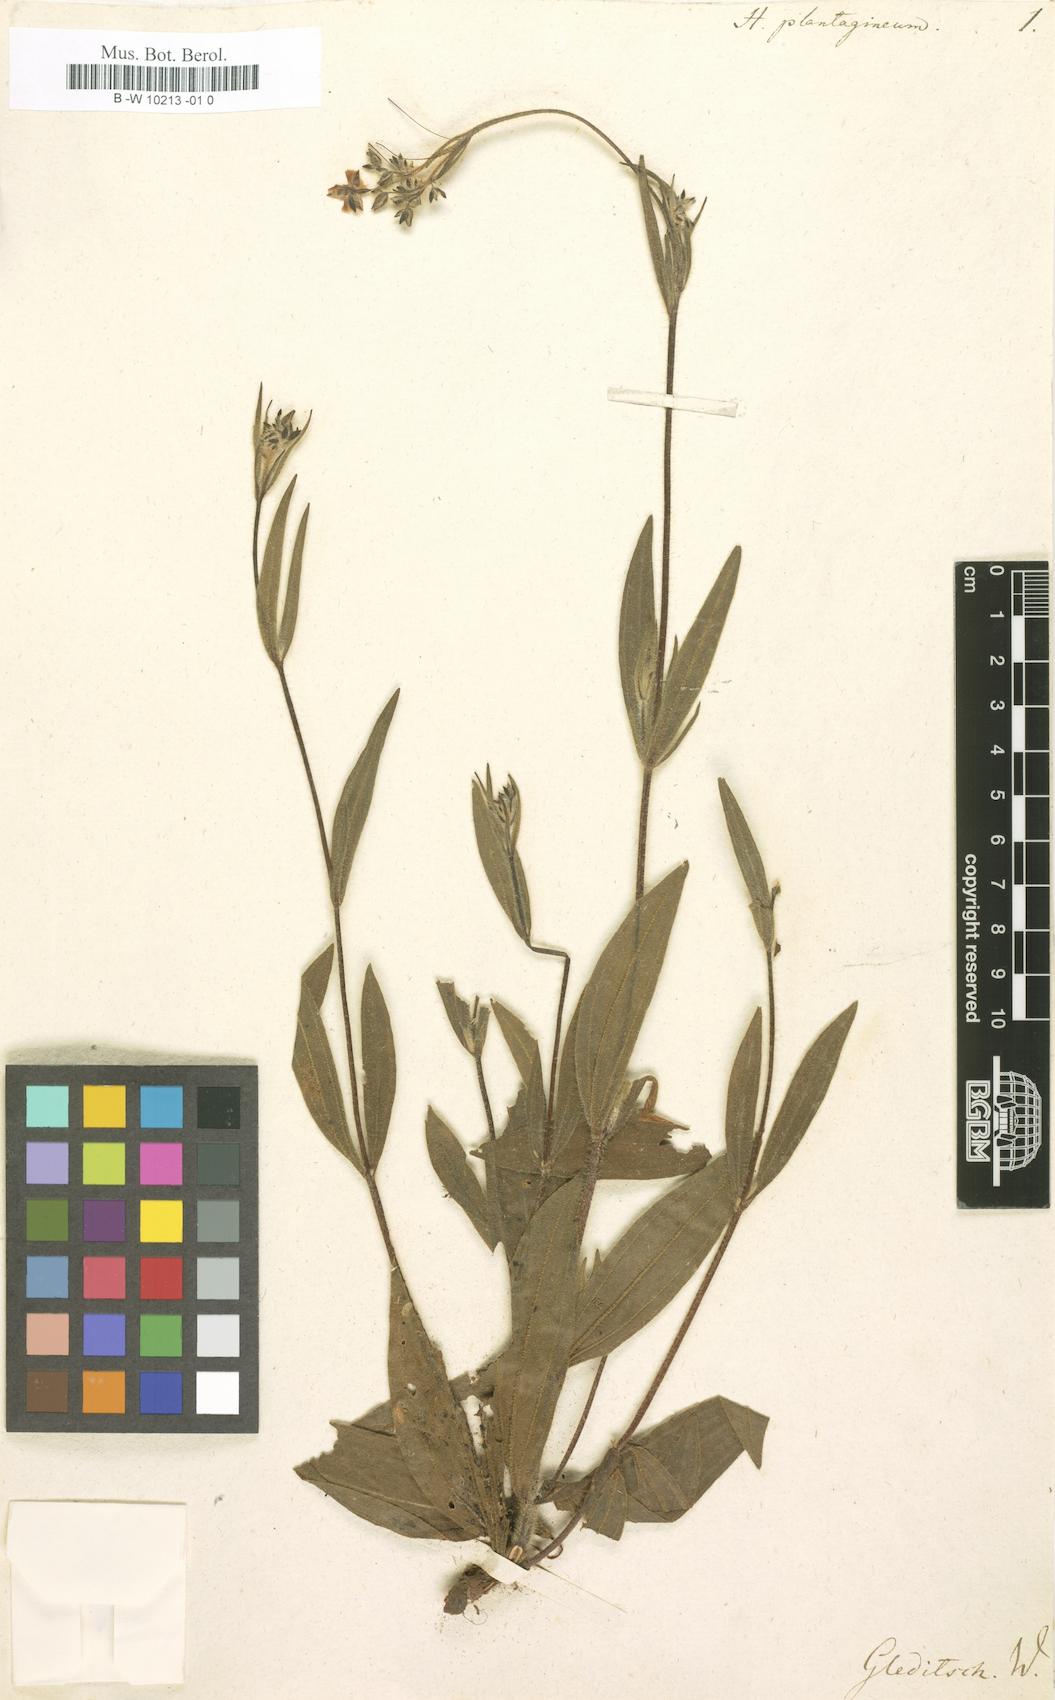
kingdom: Plantae
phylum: Tracheophyta
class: Magnoliopsida
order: Malvales
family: Cistaceae
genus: Tuberaria
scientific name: Tuberaria inconspicua
